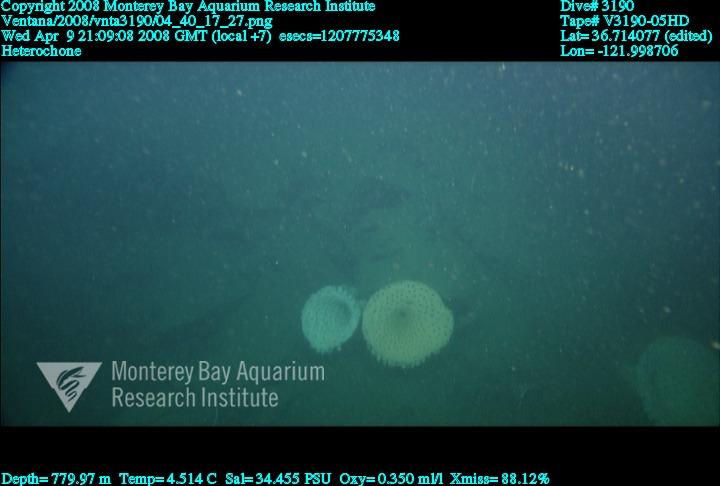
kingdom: Animalia
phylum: Porifera
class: Hexactinellida
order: Sceptrulophora
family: Aphrocallistidae
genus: Heterochone
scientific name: Heterochone
